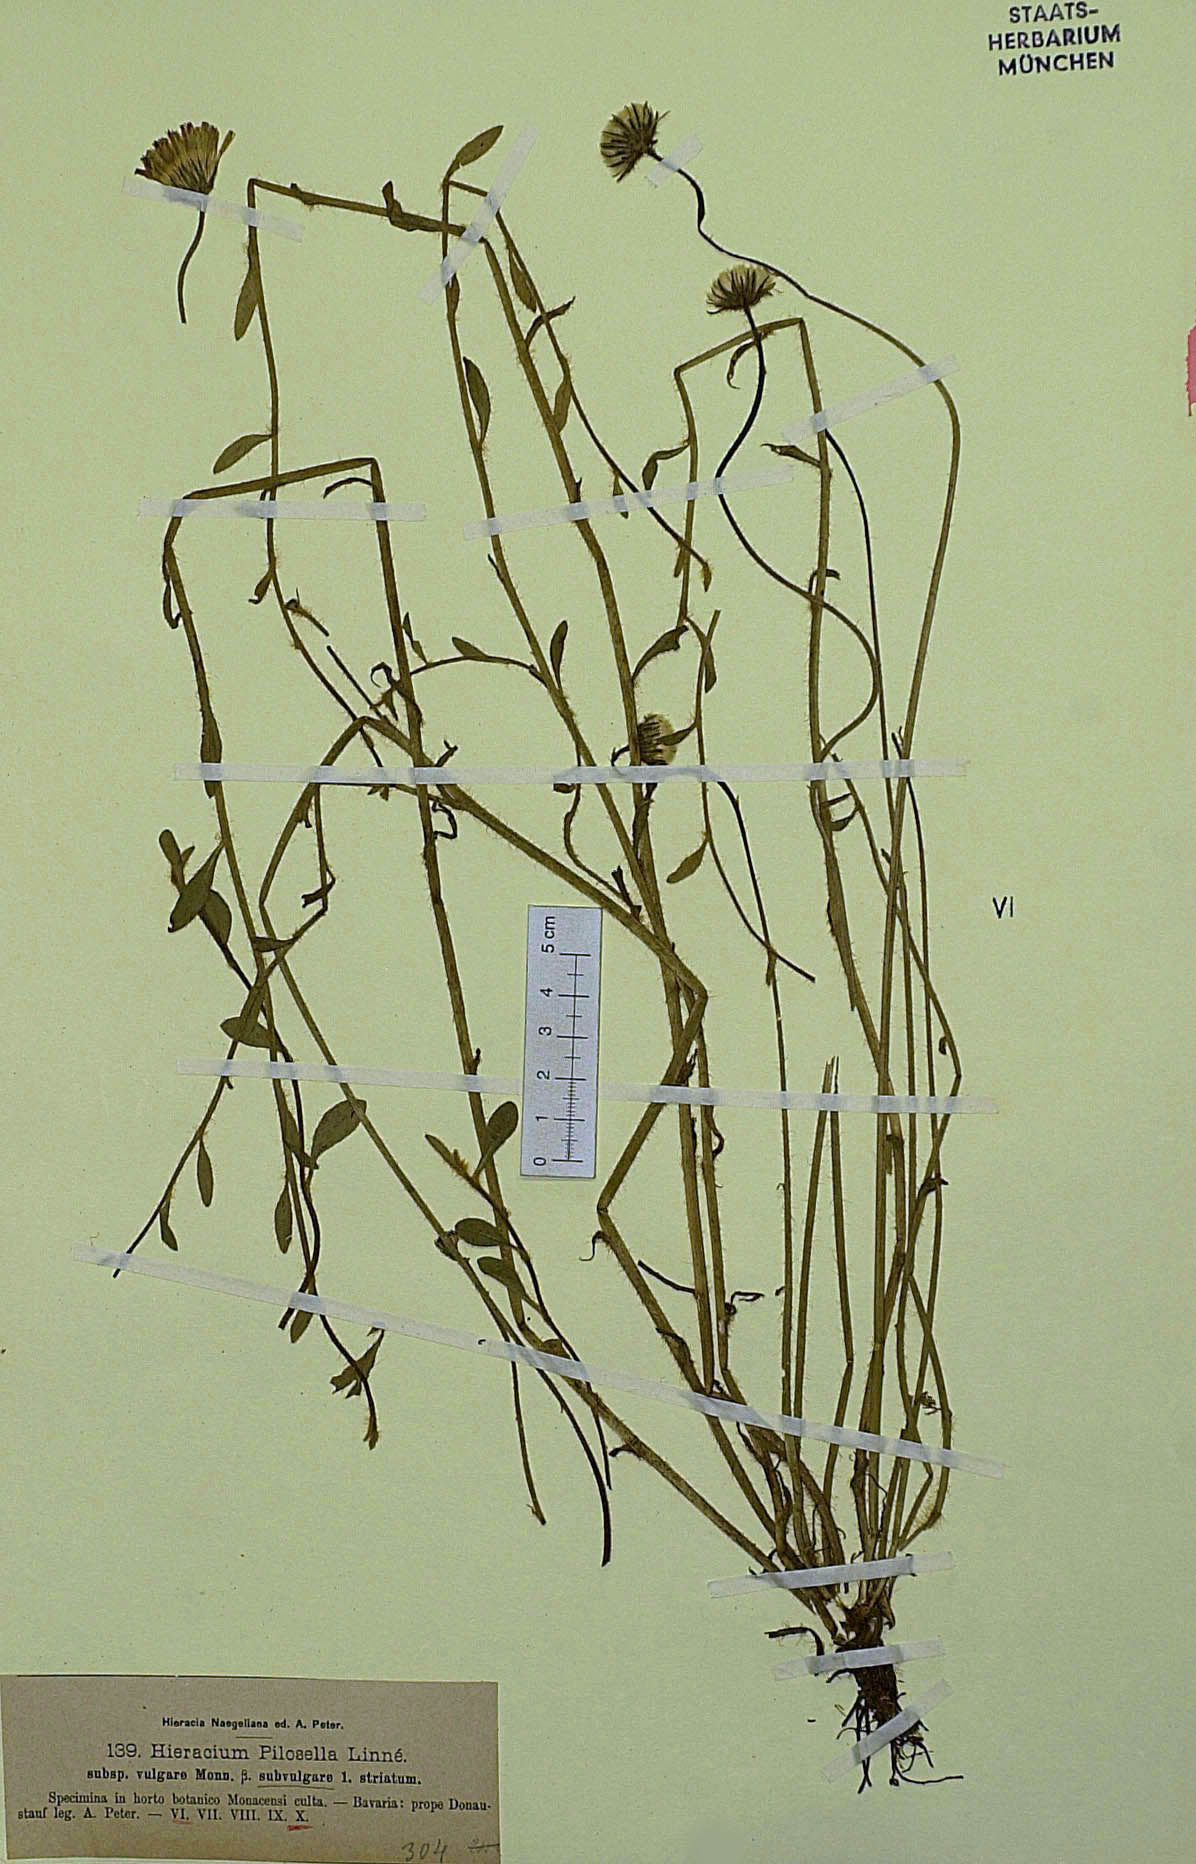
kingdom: Plantae
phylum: Tracheophyta
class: Magnoliopsida
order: Asterales
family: Asteraceae
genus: Pilosella
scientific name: Pilosella officinarum
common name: Mouse-ear hawkweed
